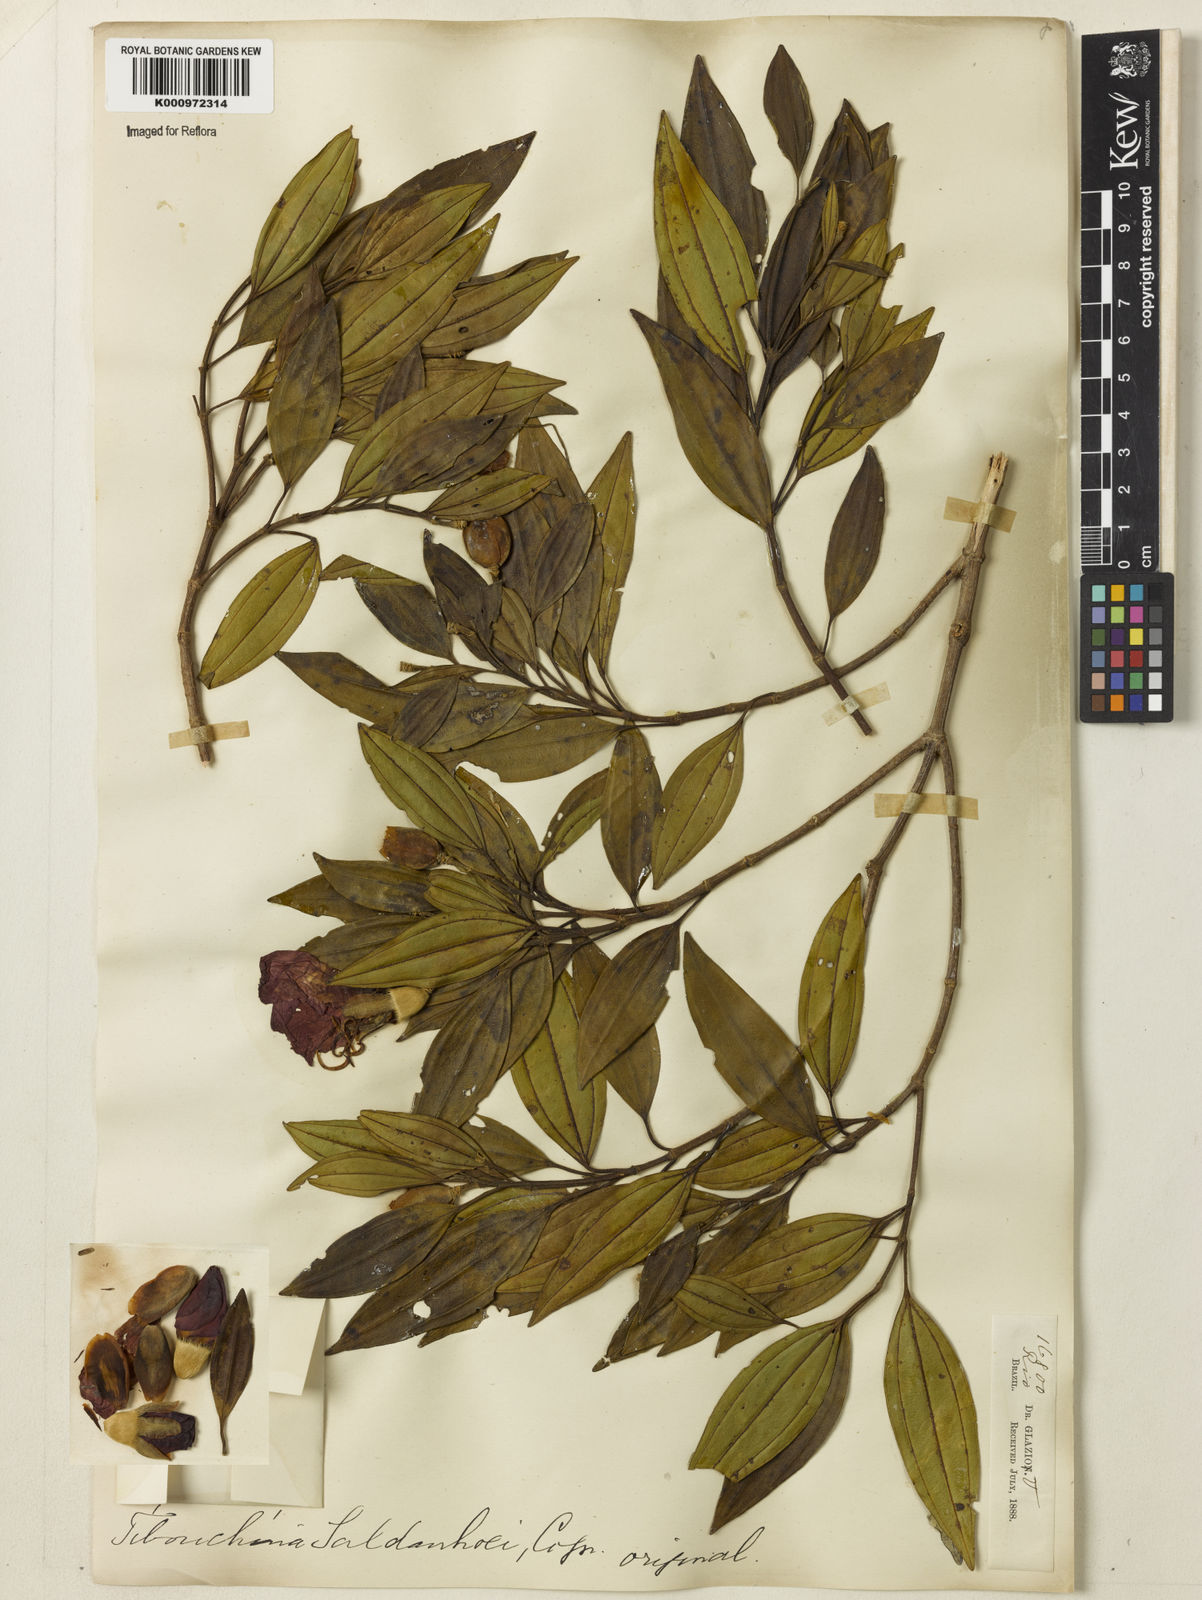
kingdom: Plantae
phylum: Tracheophyta
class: Magnoliopsida
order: Myrtales
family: Melastomataceae
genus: Pleroma
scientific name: Pleroma raddianum
